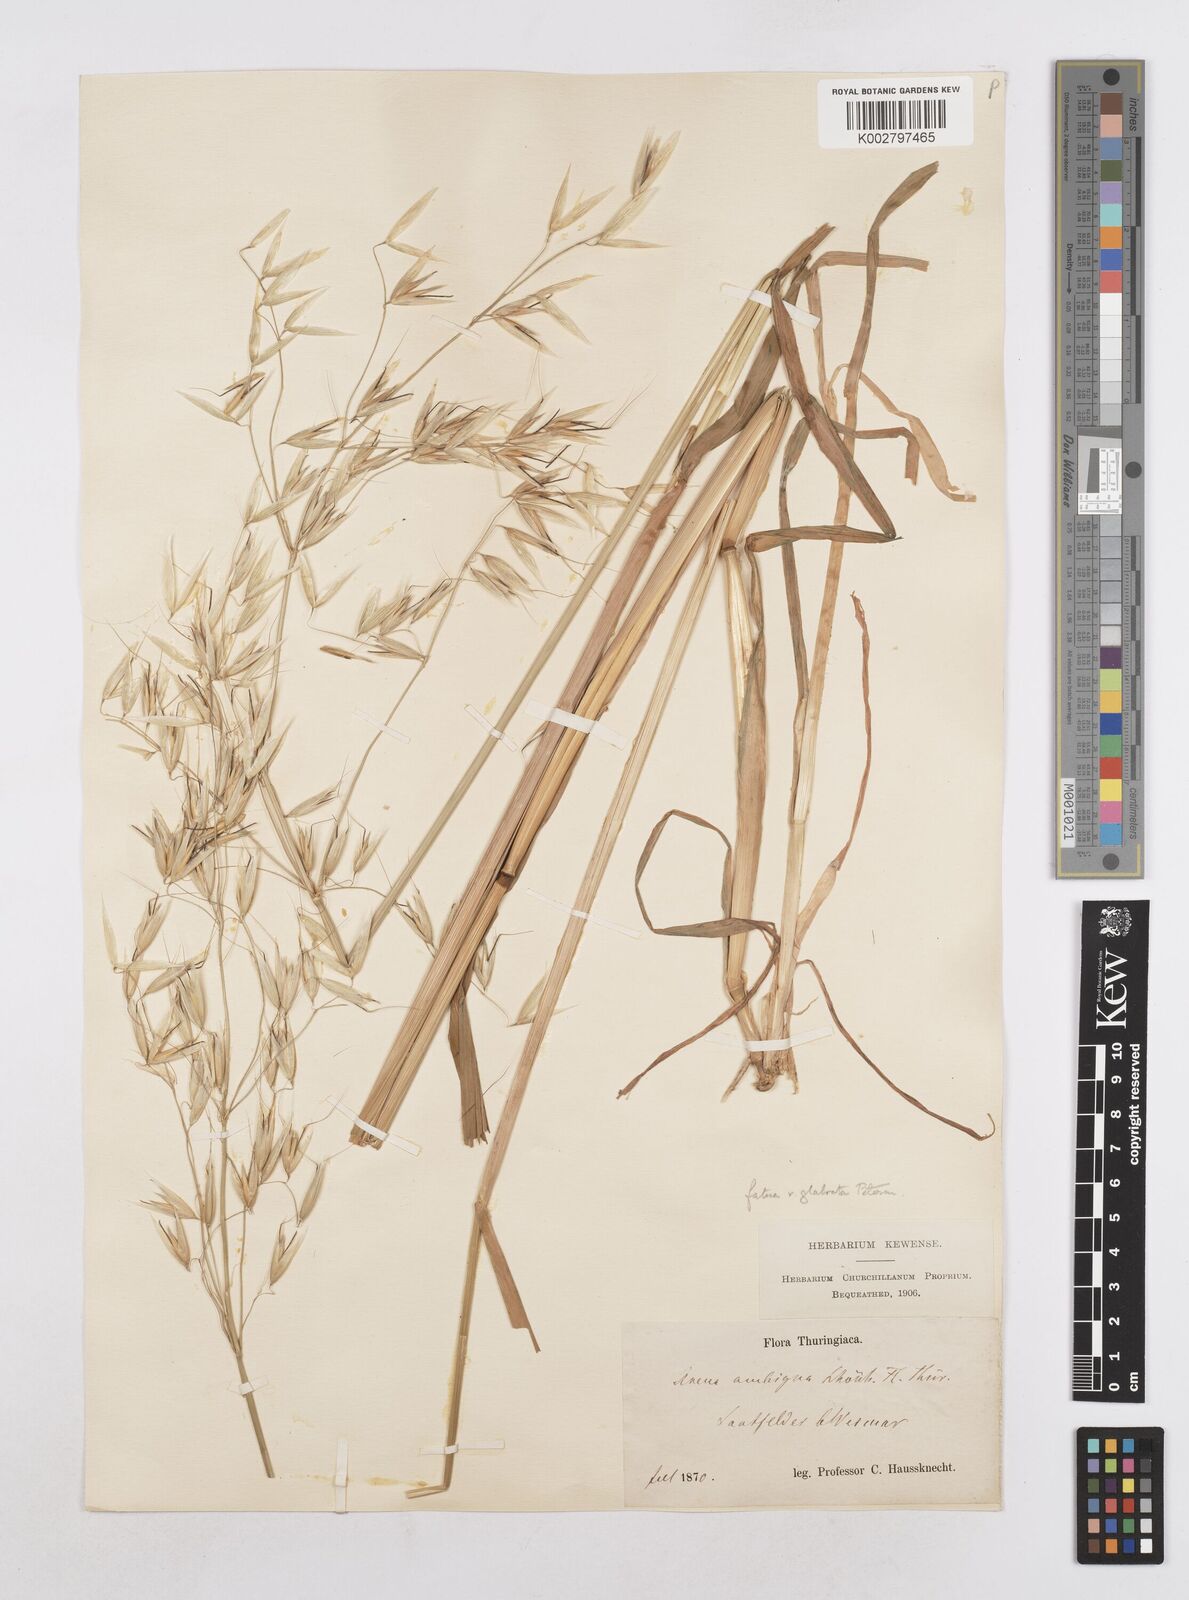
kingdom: Plantae
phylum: Tracheophyta
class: Liliopsida
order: Poales
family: Poaceae
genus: Avena
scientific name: Avena fatua
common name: Wild oat
